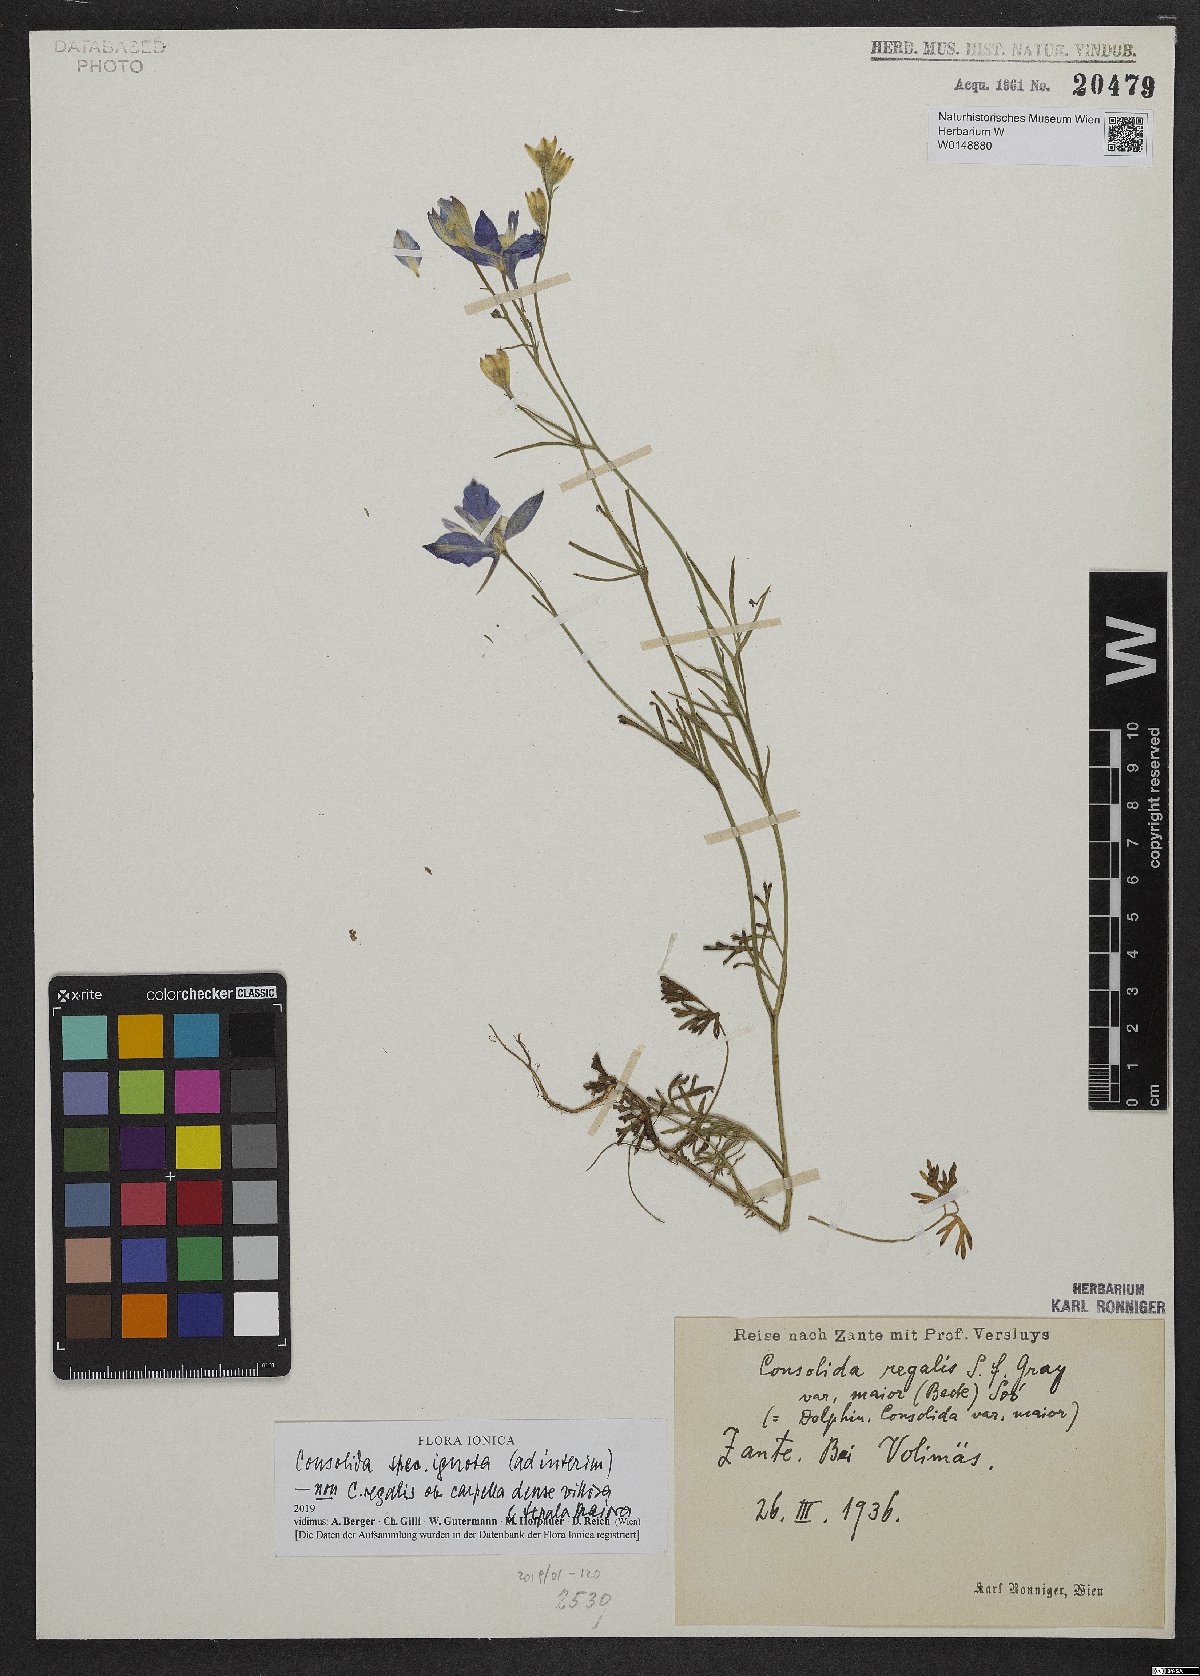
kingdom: Plantae
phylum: Tracheophyta
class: Magnoliopsida
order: Ranunculales
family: Ranunculaceae
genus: Delphinium
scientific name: Delphinium
